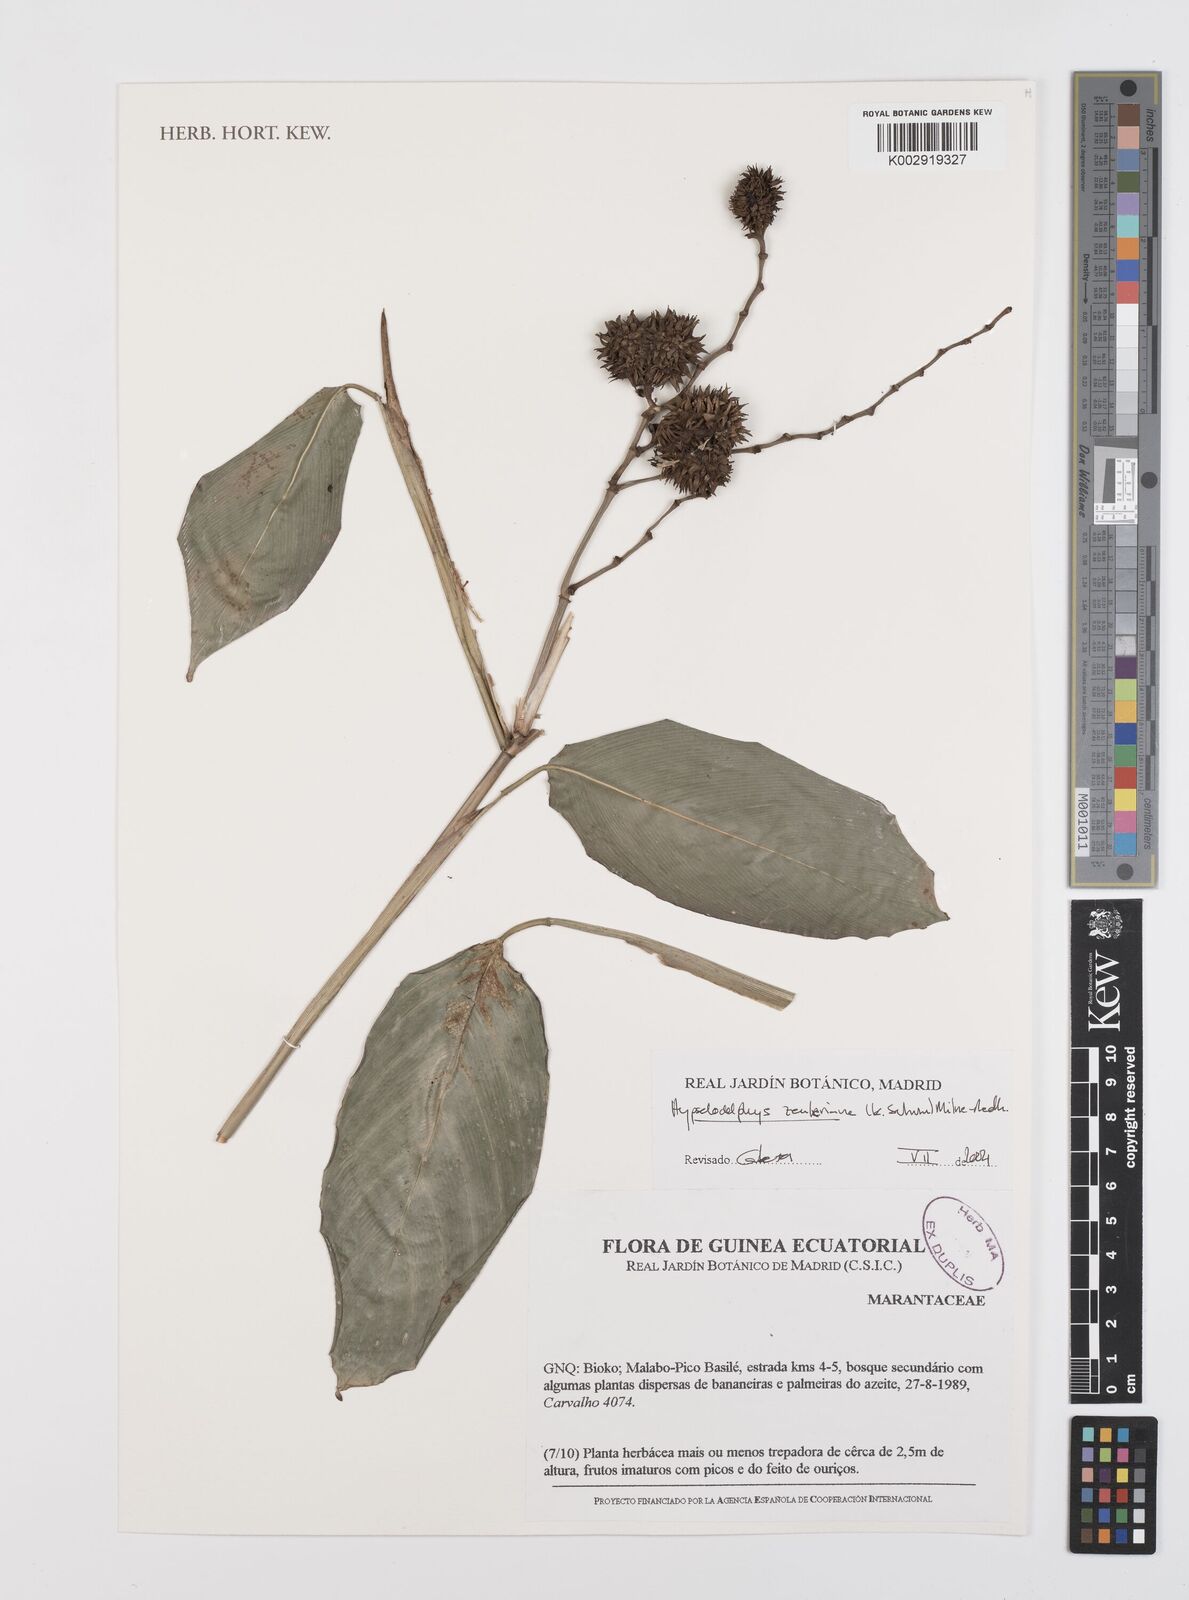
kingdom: Plantae
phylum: Tracheophyta
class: Liliopsida
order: Zingiberales
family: Marantaceae
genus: Hypselodelphys
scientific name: Hypselodelphys zenkeriana
